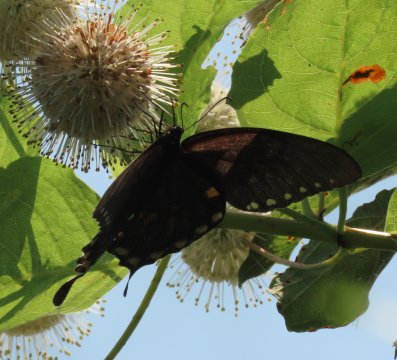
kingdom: Animalia
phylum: Arthropoda
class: Insecta
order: Lepidoptera
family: Papilionidae
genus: Pterourus
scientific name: Pterourus troilus
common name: Spicebush Swallowtail
